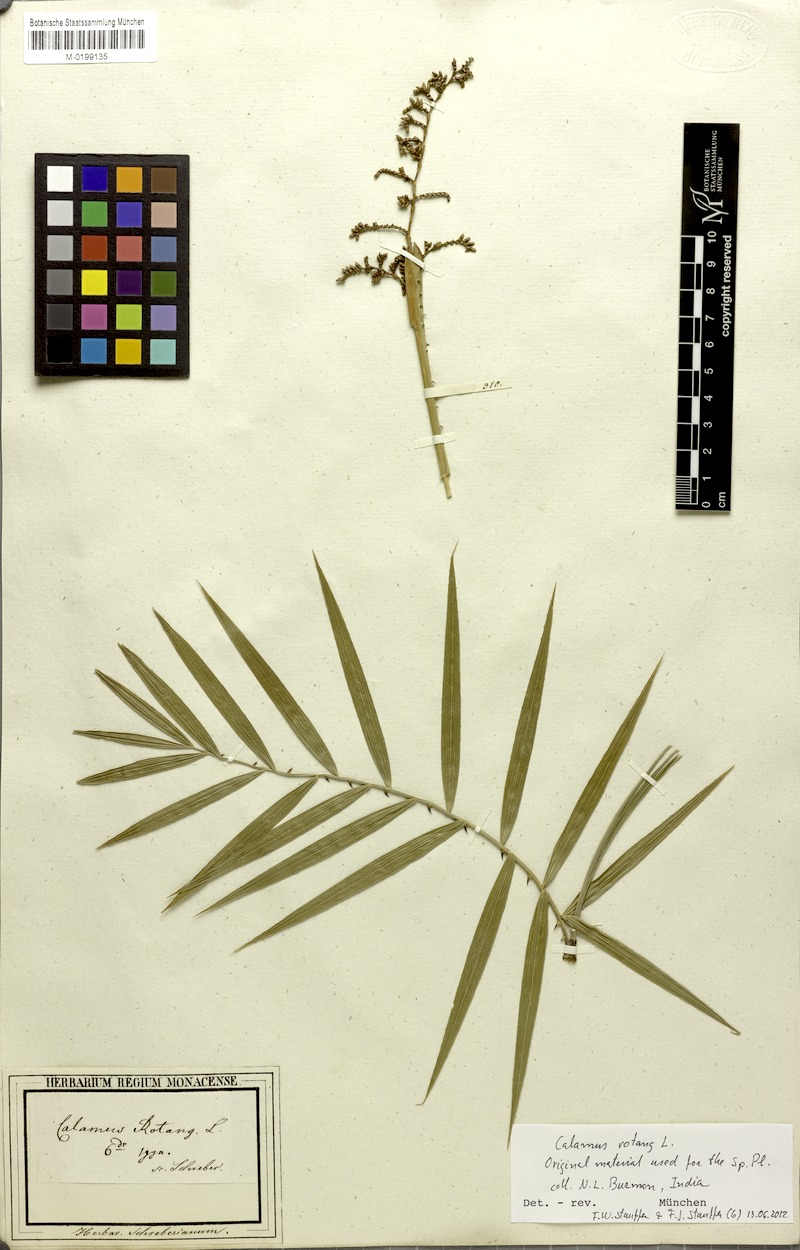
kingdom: Plantae
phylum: Tracheophyta
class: Liliopsida
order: Arecales
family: Arecaceae
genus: Calamus
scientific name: Calamus rotang
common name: Rattan cane
